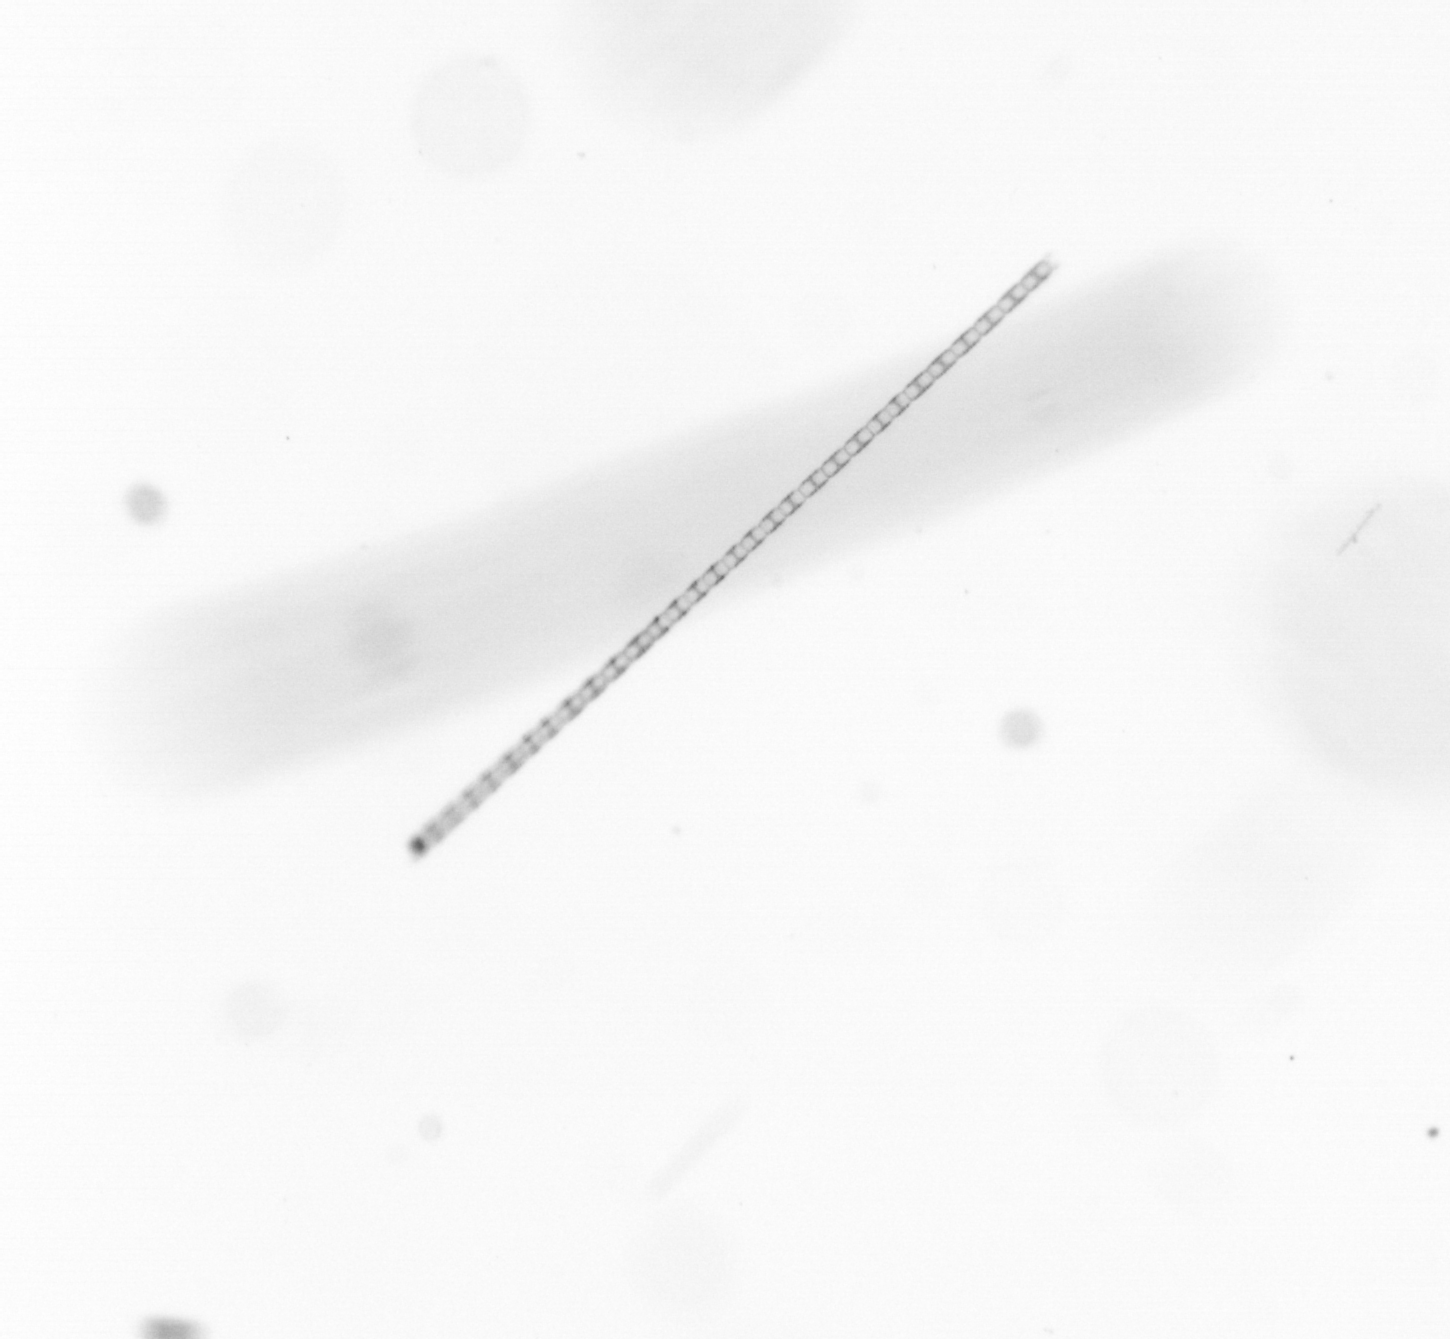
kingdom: Chromista
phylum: Ochrophyta
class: Bacillariophyceae
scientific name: Bacillariophyceae
